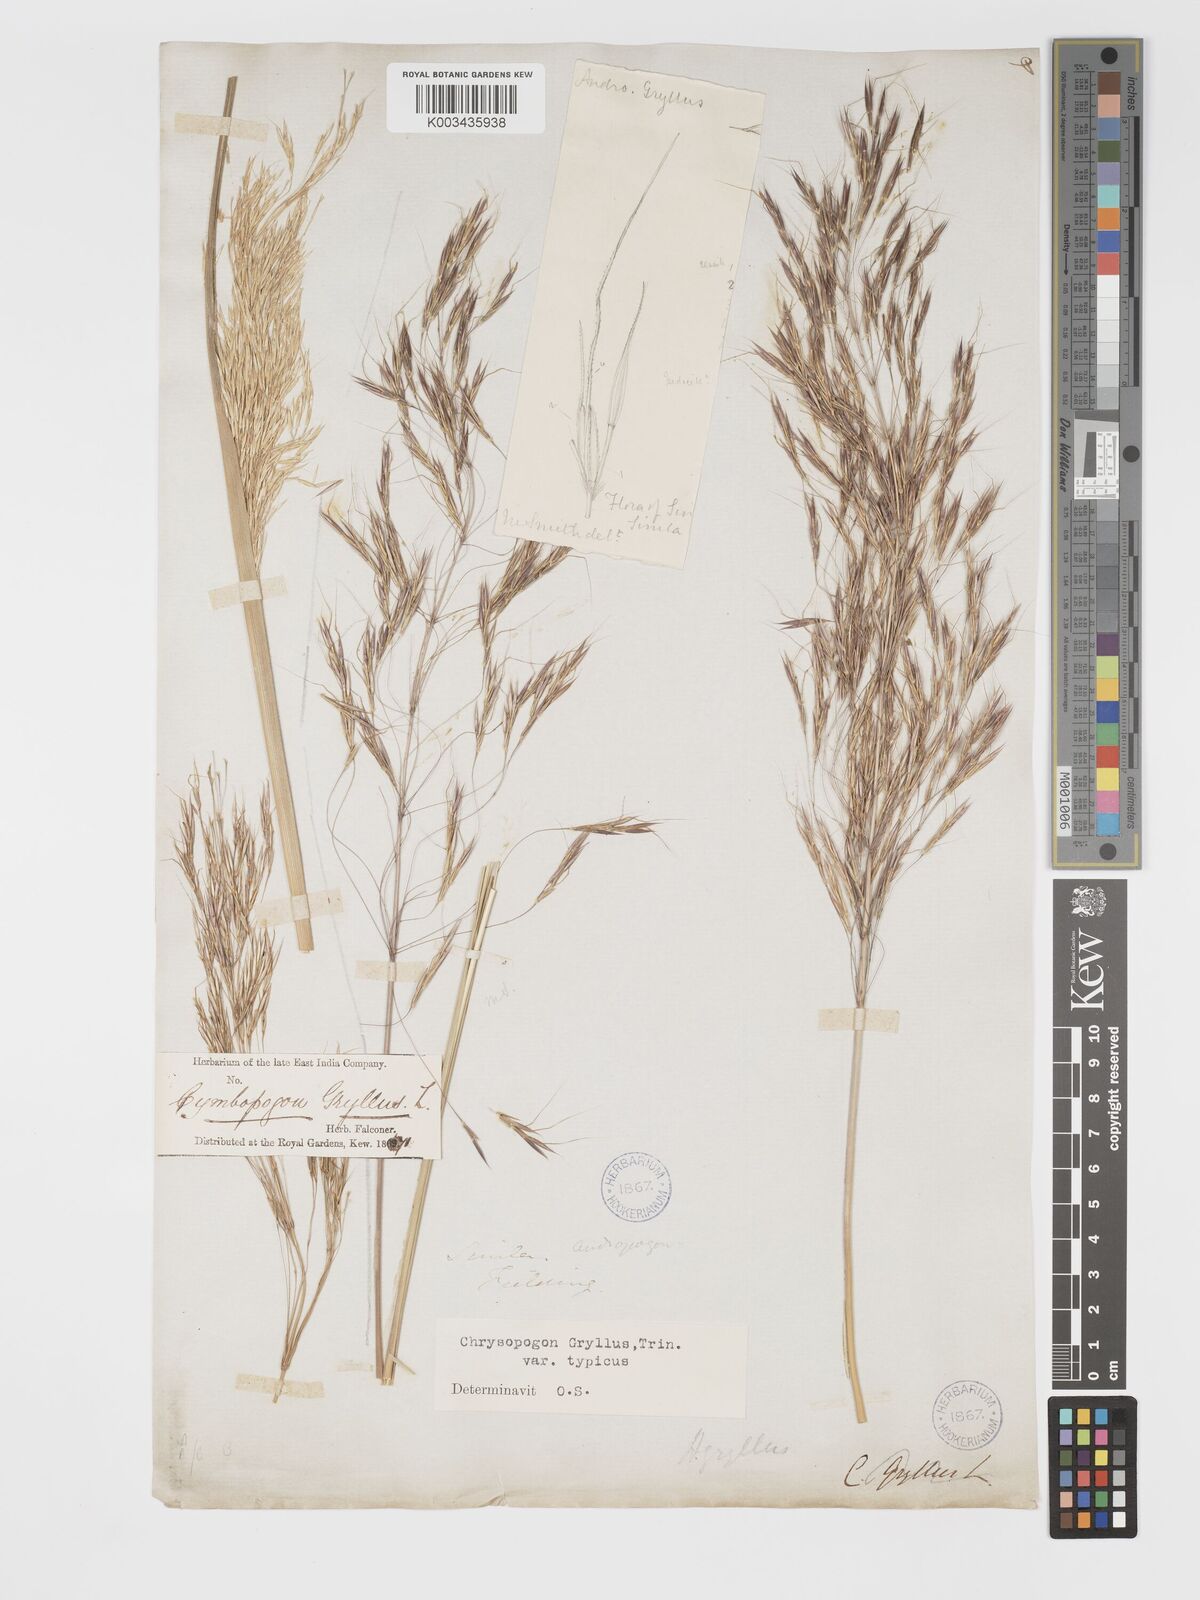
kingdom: Plantae
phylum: Tracheophyta
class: Liliopsida
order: Poales
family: Poaceae
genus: Chrysopogon
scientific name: Chrysopogon gryllus
